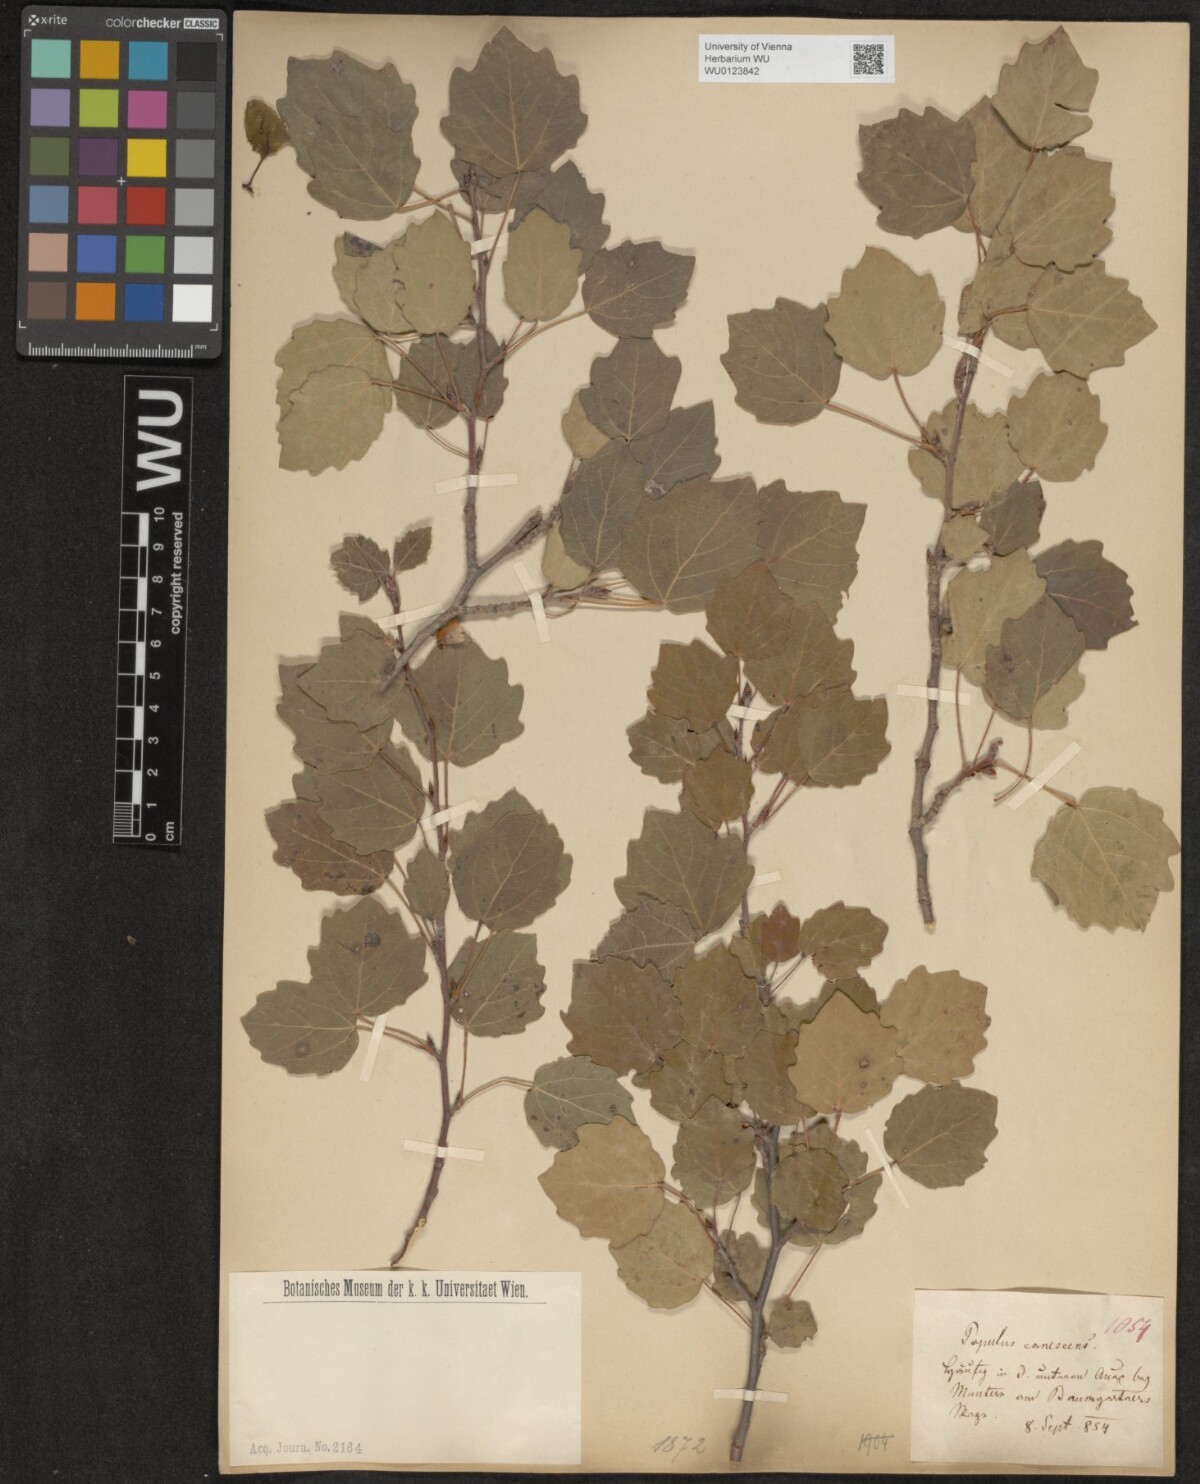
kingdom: Plantae
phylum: Tracheophyta
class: Magnoliopsida
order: Malpighiales
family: Salicaceae
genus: Populus
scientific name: Populus canescens
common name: Gray poplar
